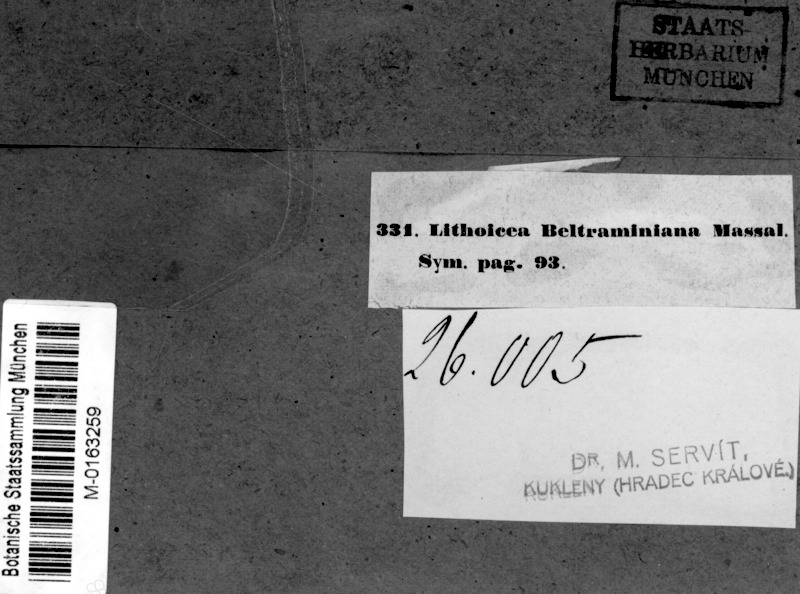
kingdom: Fungi
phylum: Ascomycota
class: Eurotiomycetes
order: Verrucariales
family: Verrucariaceae
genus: Verruculopsis
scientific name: Verruculopsis beltraminiana
